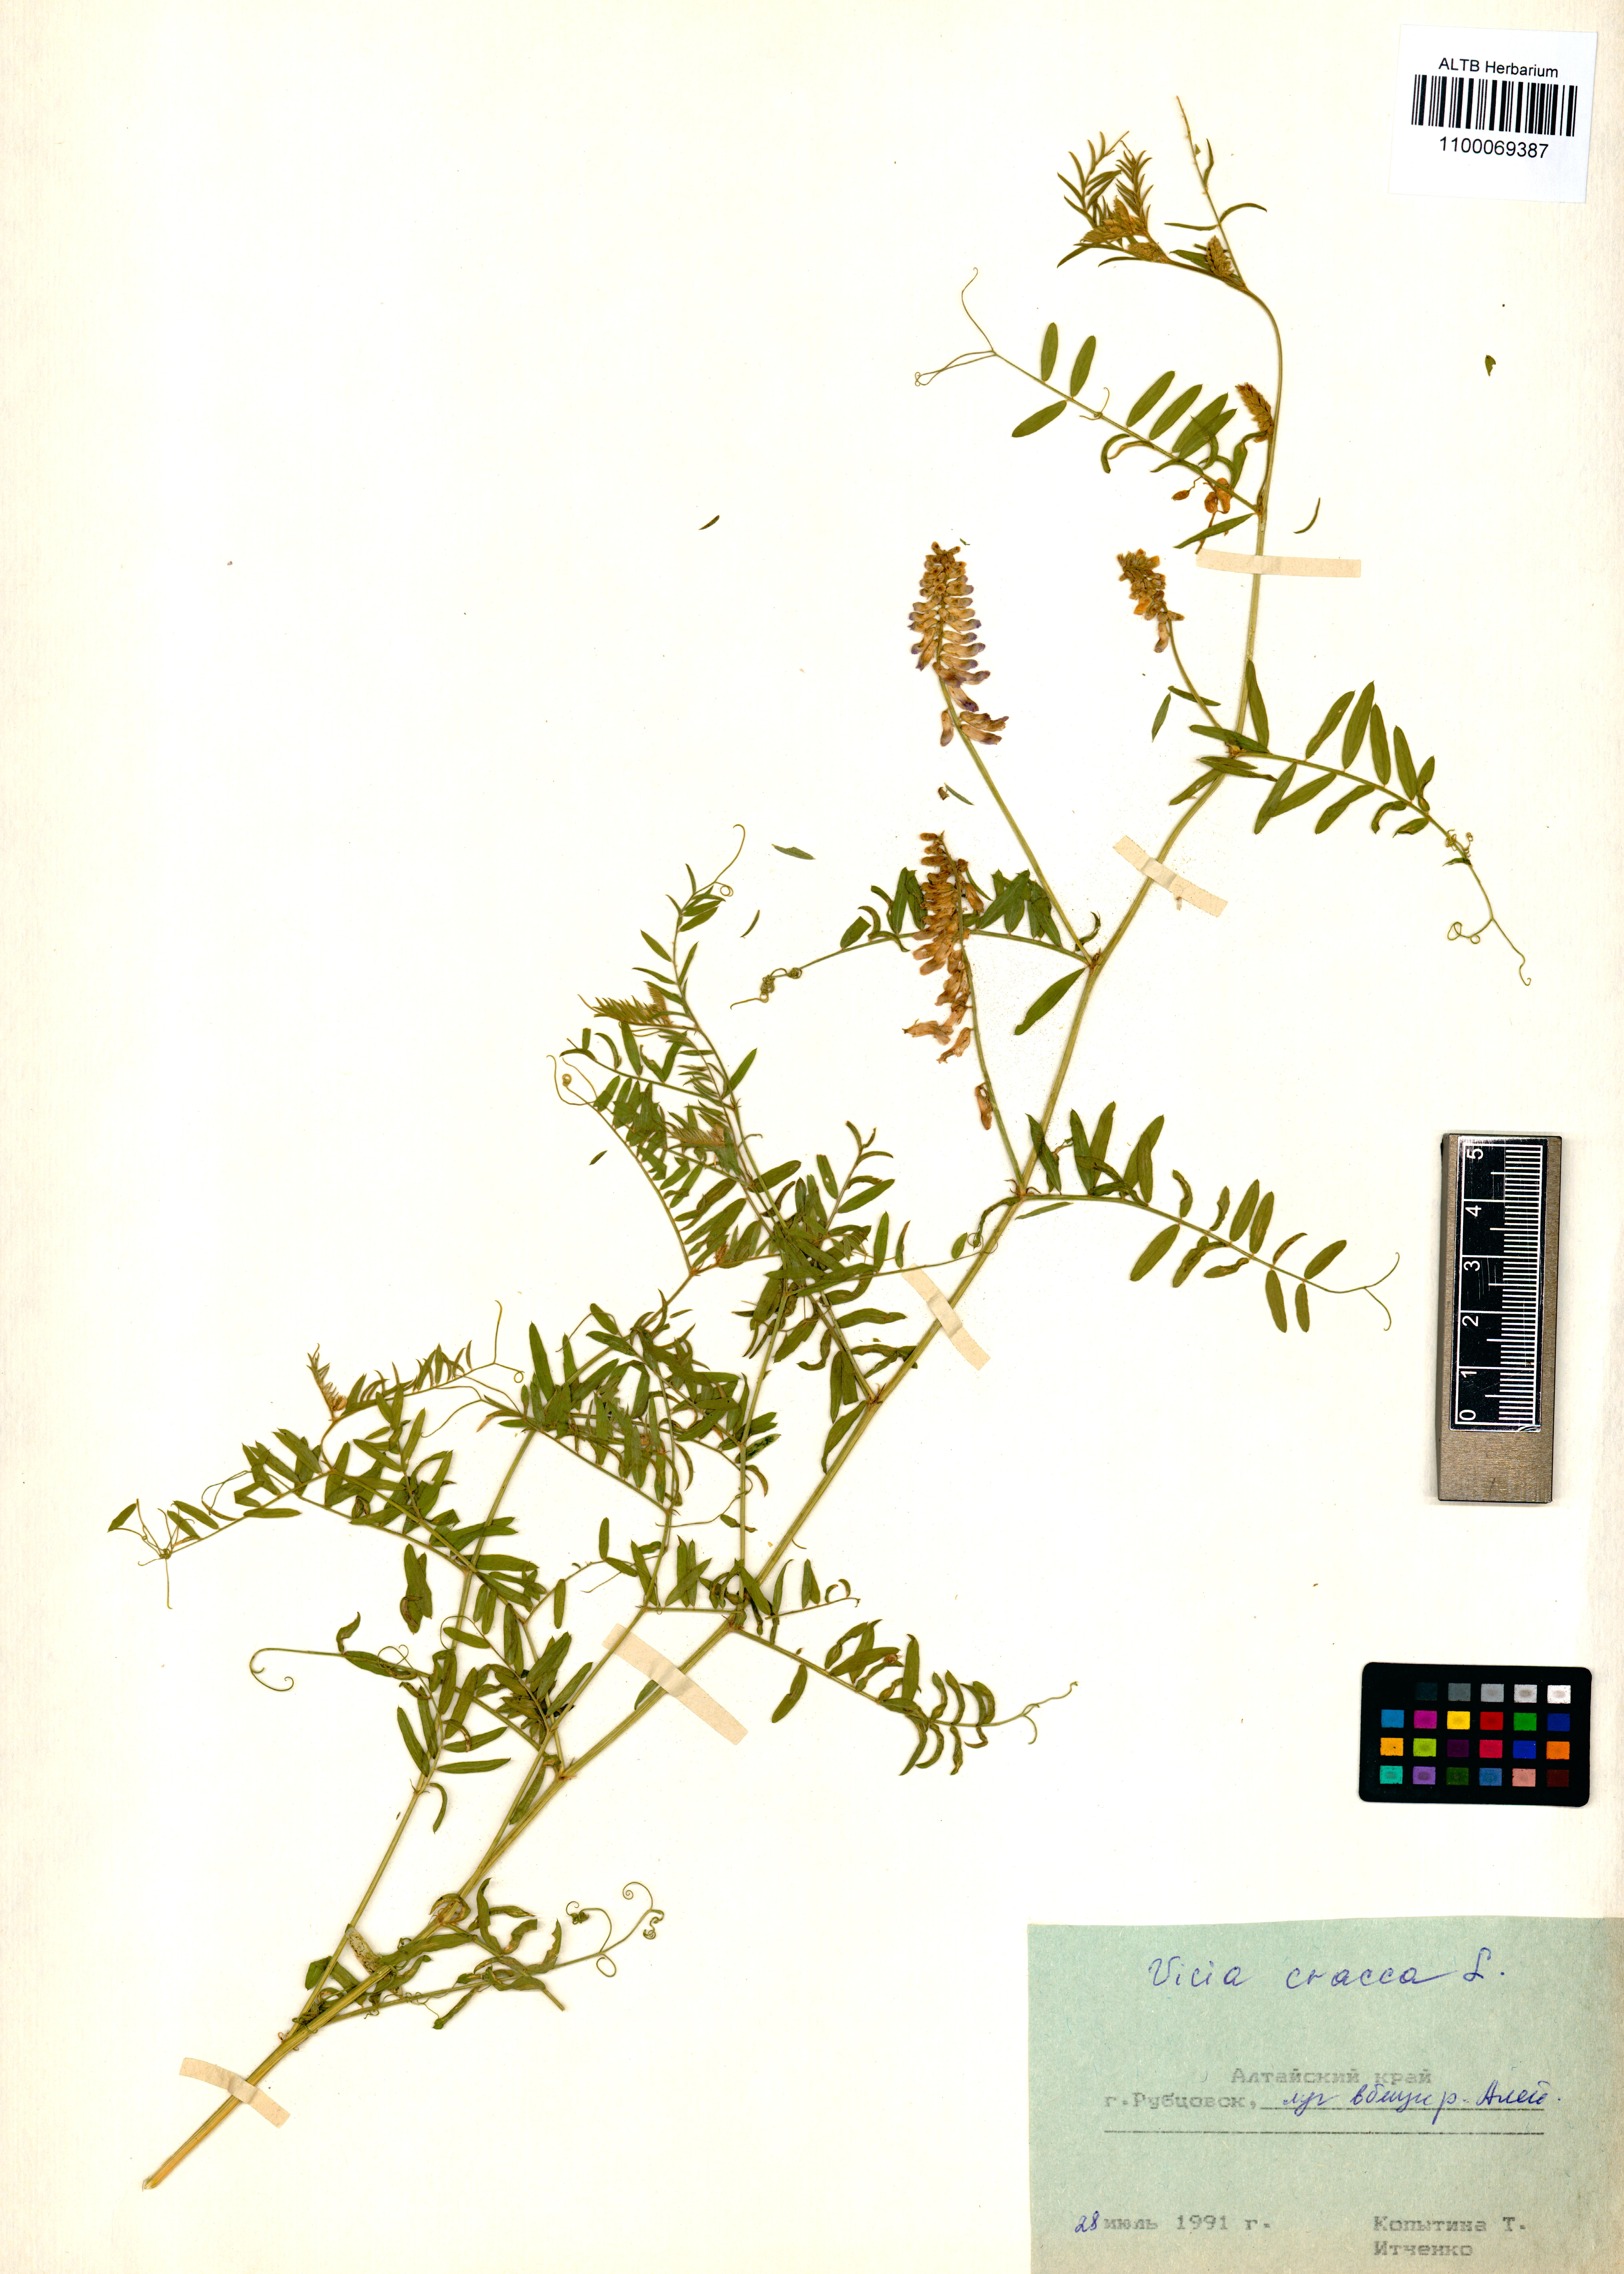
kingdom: Plantae
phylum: Tracheophyta
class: Magnoliopsida
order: Fabales
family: Fabaceae
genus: Vicia
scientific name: Vicia cracca
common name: Bird vetch
